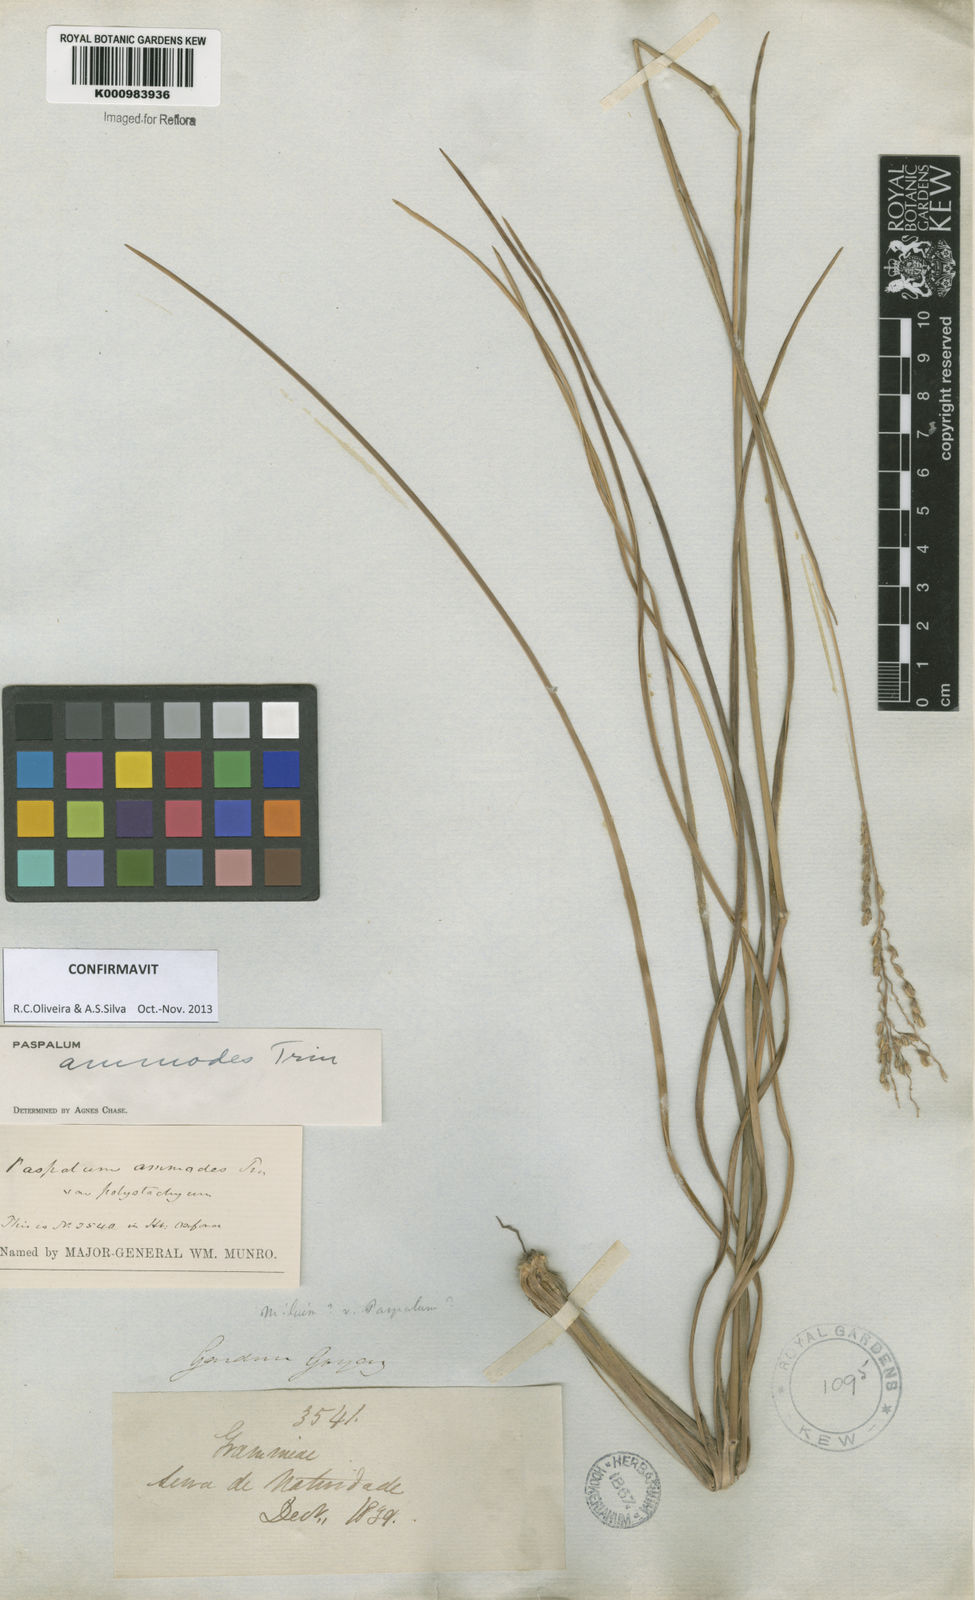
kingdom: Plantae
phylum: Tracheophyta
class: Liliopsida
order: Poales
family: Poaceae
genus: Paspalum
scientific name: Paspalum ammodes
